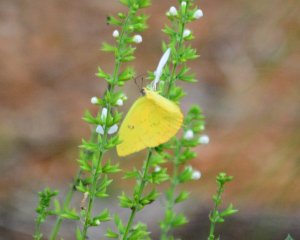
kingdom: Animalia
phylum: Arthropoda
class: Insecta
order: Lepidoptera
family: Pieridae
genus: Phoebis
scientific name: Phoebis philea
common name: Orange-barred Sulphur
